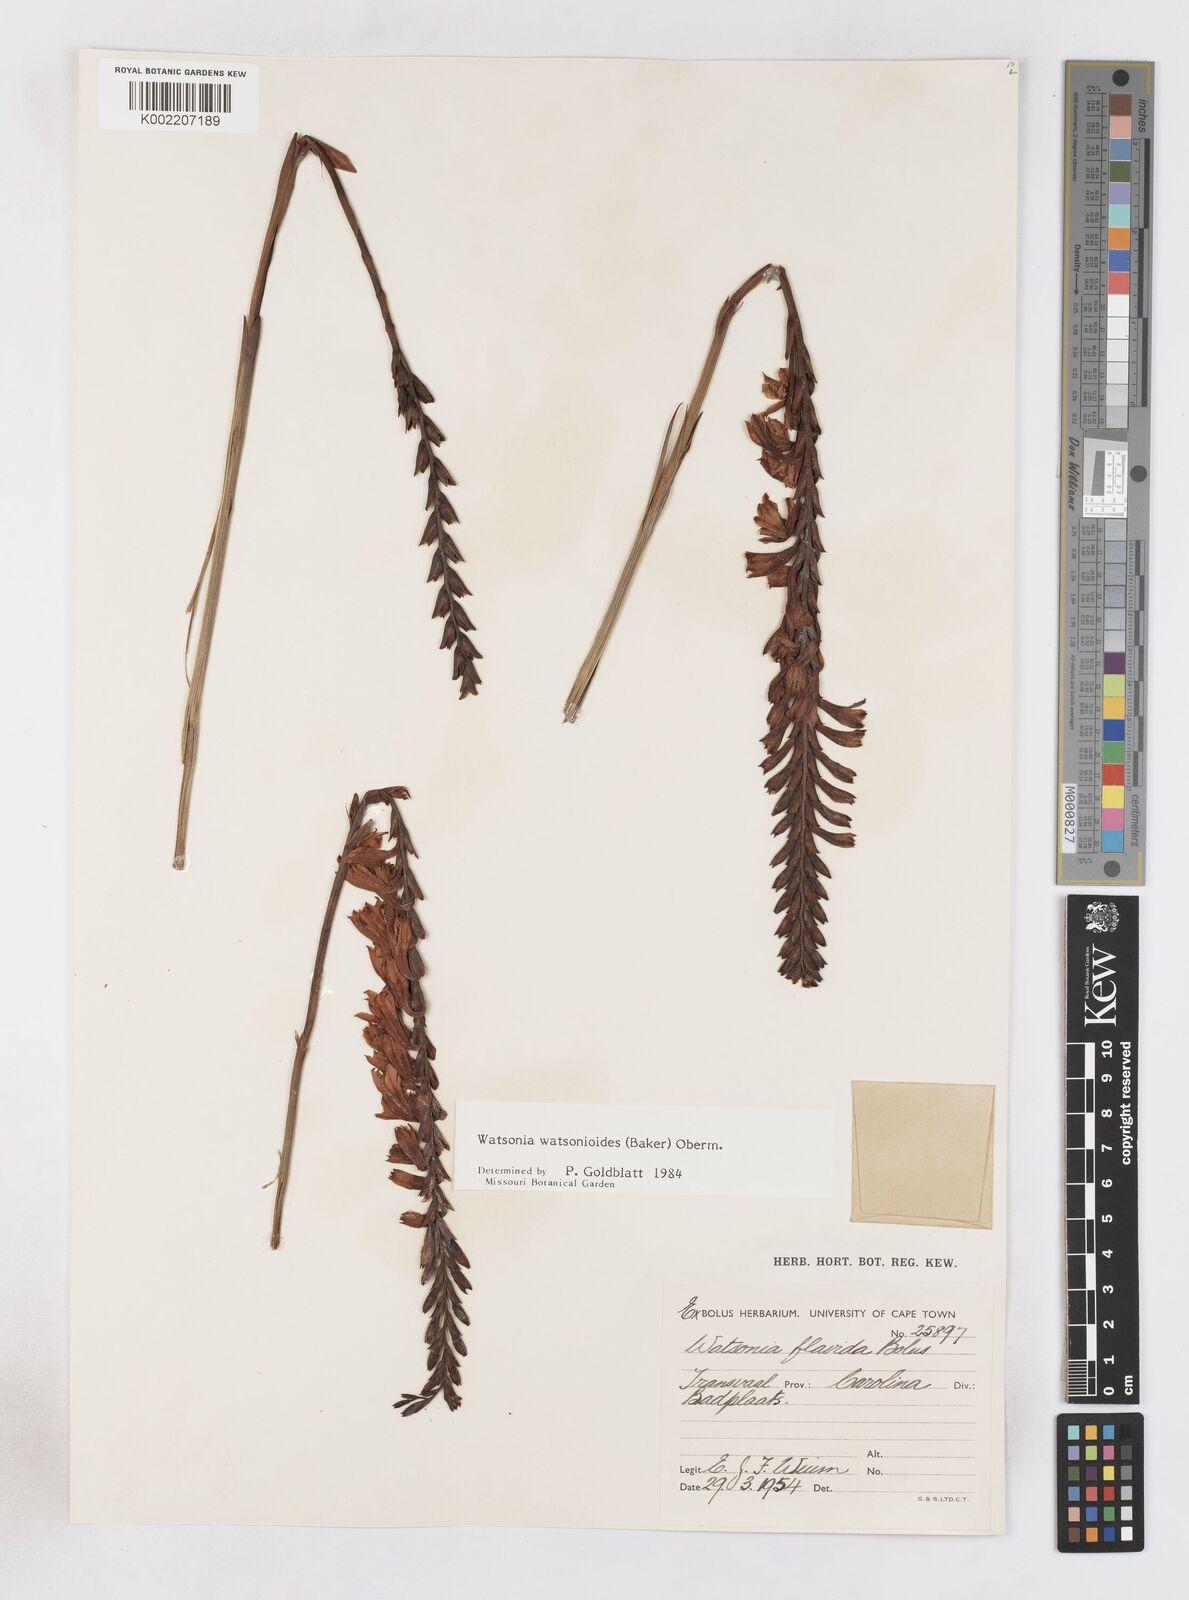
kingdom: Plantae
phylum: Tracheophyta
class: Liliopsida
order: Asparagales
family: Iridaceae
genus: Watsonia
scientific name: Watsonia watsonioides
